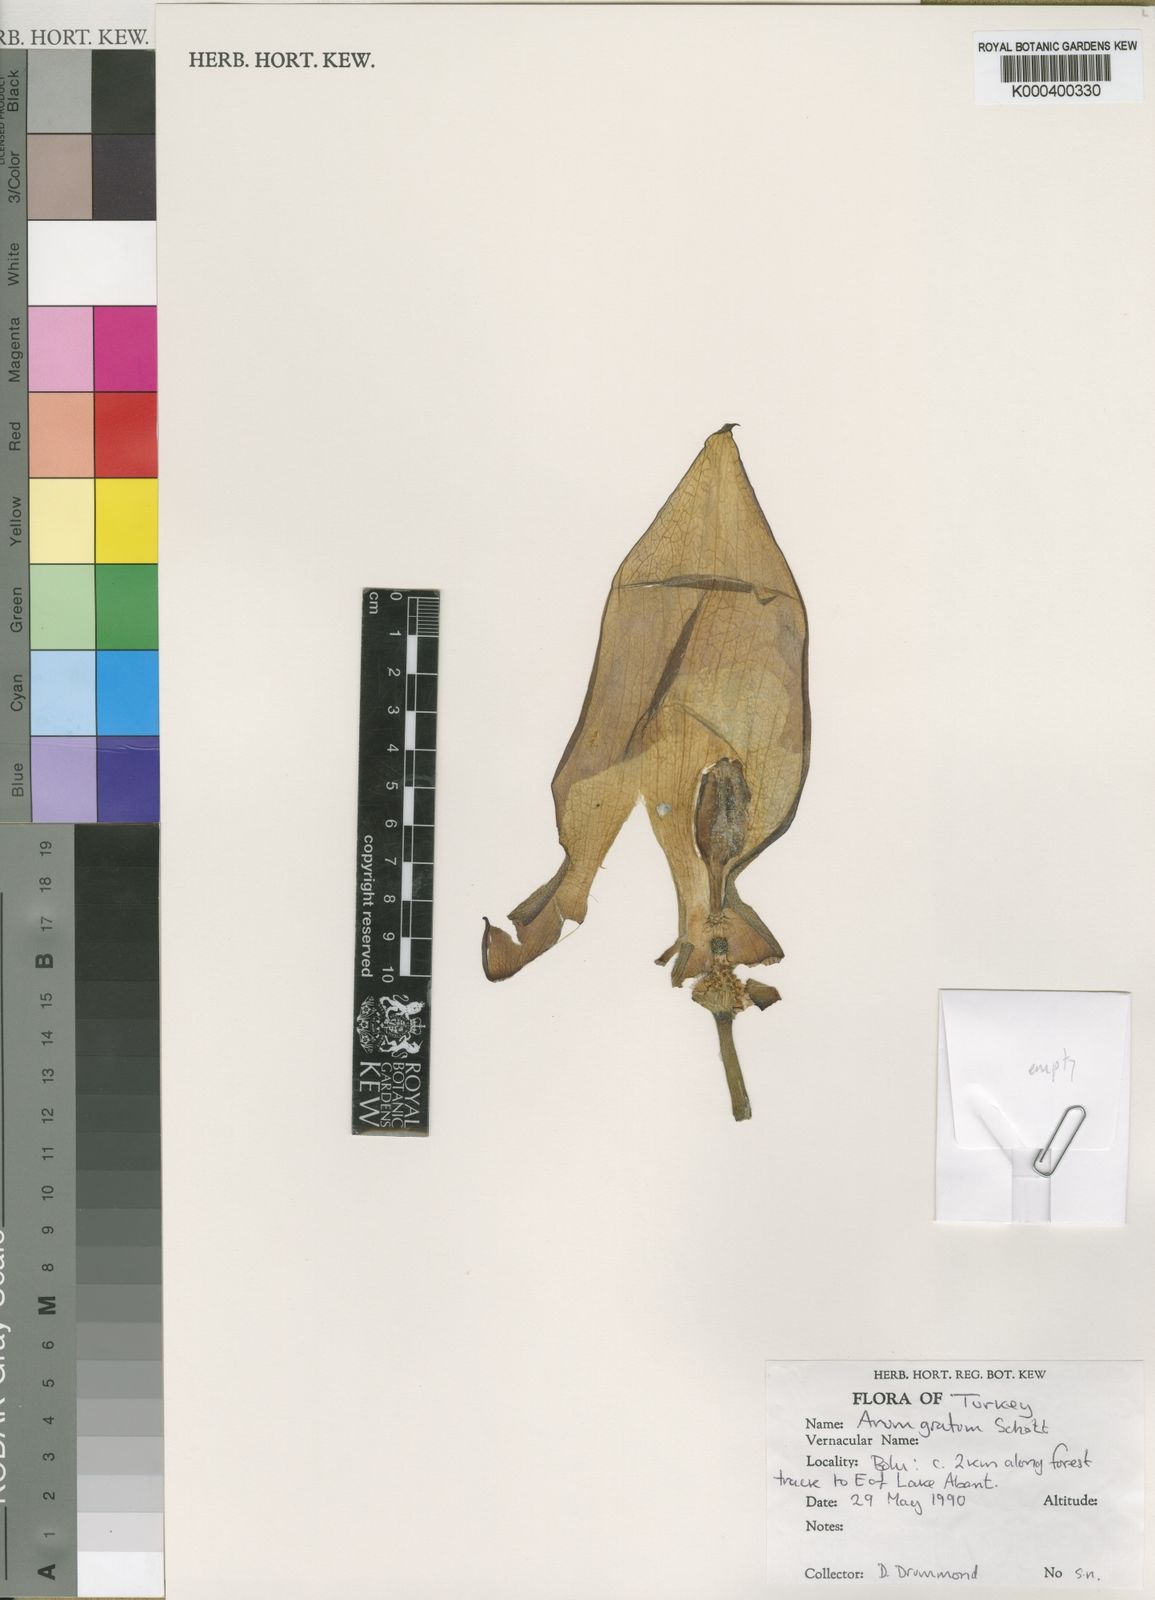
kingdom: Plantae
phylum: Tracheophyta
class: Liliopsida
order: Alismatales
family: Araceae
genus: Arum
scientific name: Arum gratum
